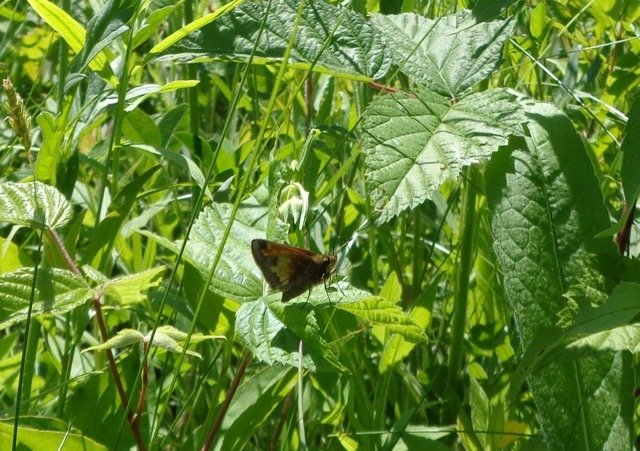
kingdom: Animalia
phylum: Arthropoda
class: Insecta
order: Lepidoptera
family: Hesperiidae
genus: Lon
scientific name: Lon hobomok
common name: Hobomok Skipper
